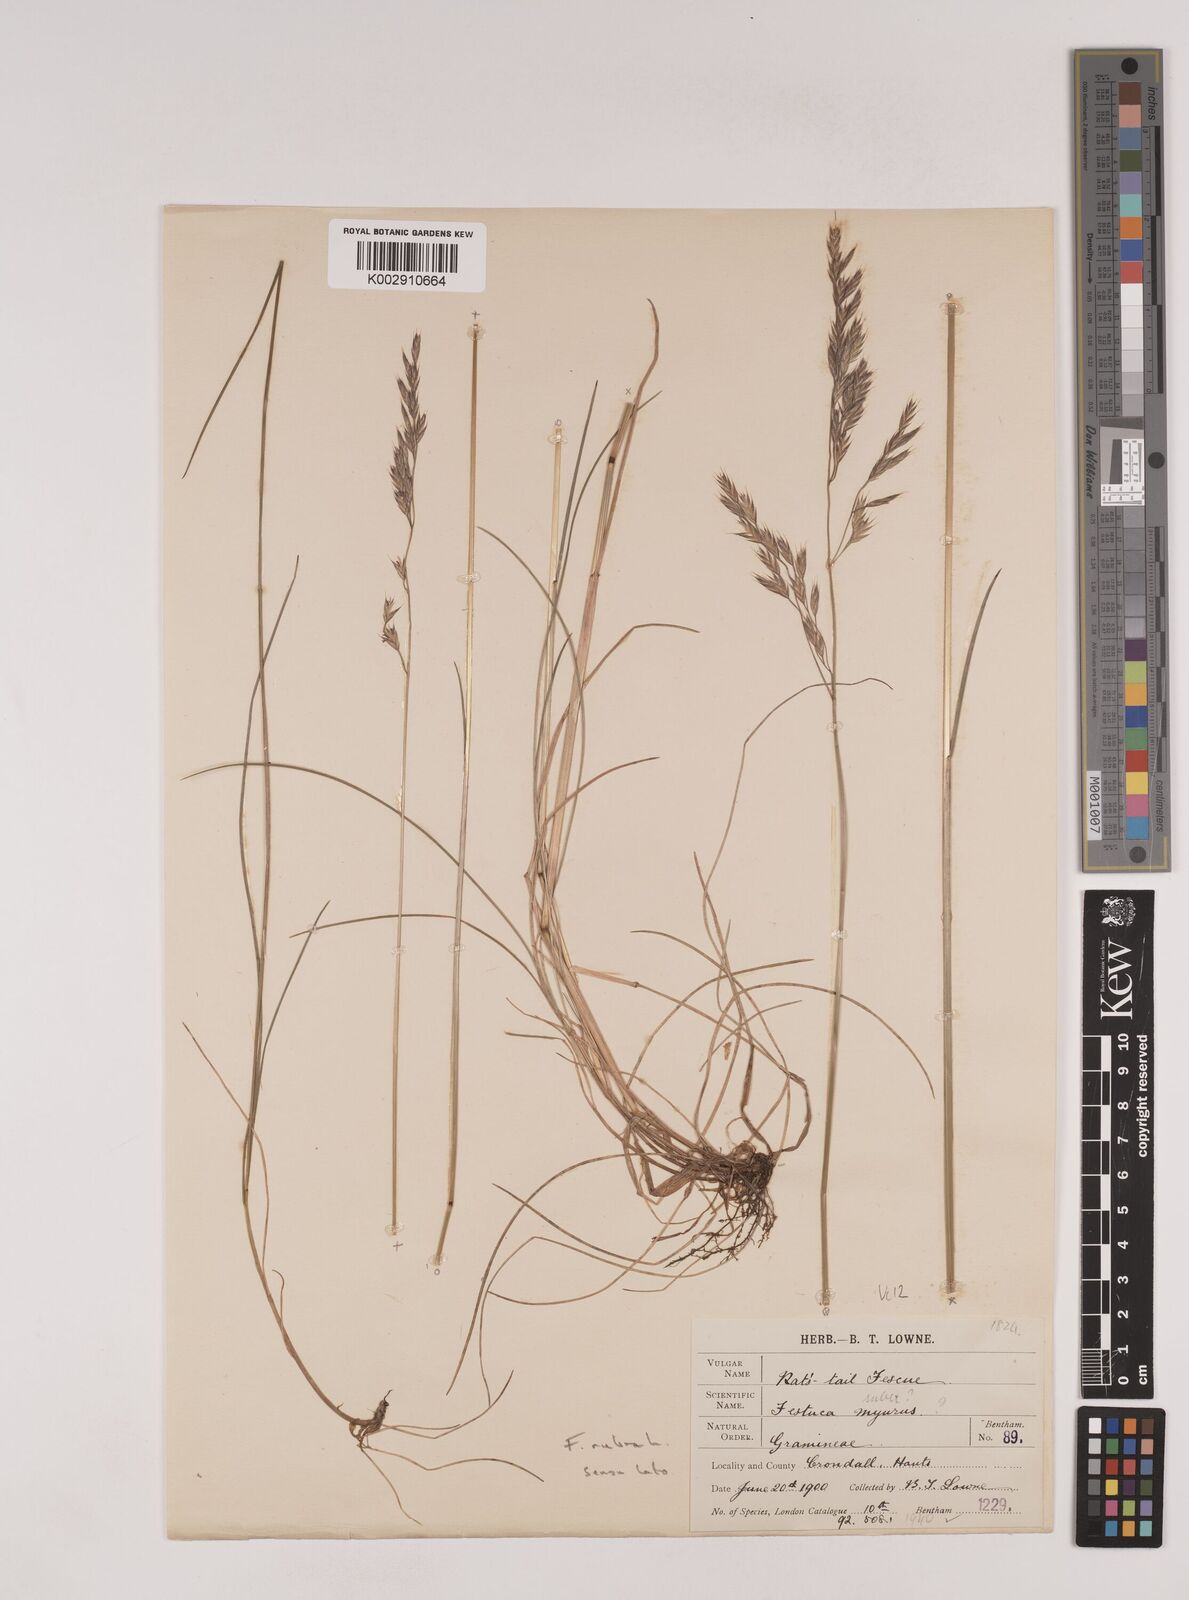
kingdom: Plantae
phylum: Tracheophyta
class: Liliopsida
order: Poales
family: Poaceae
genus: Festuca
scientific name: Festuca rubra
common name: Red fescue
